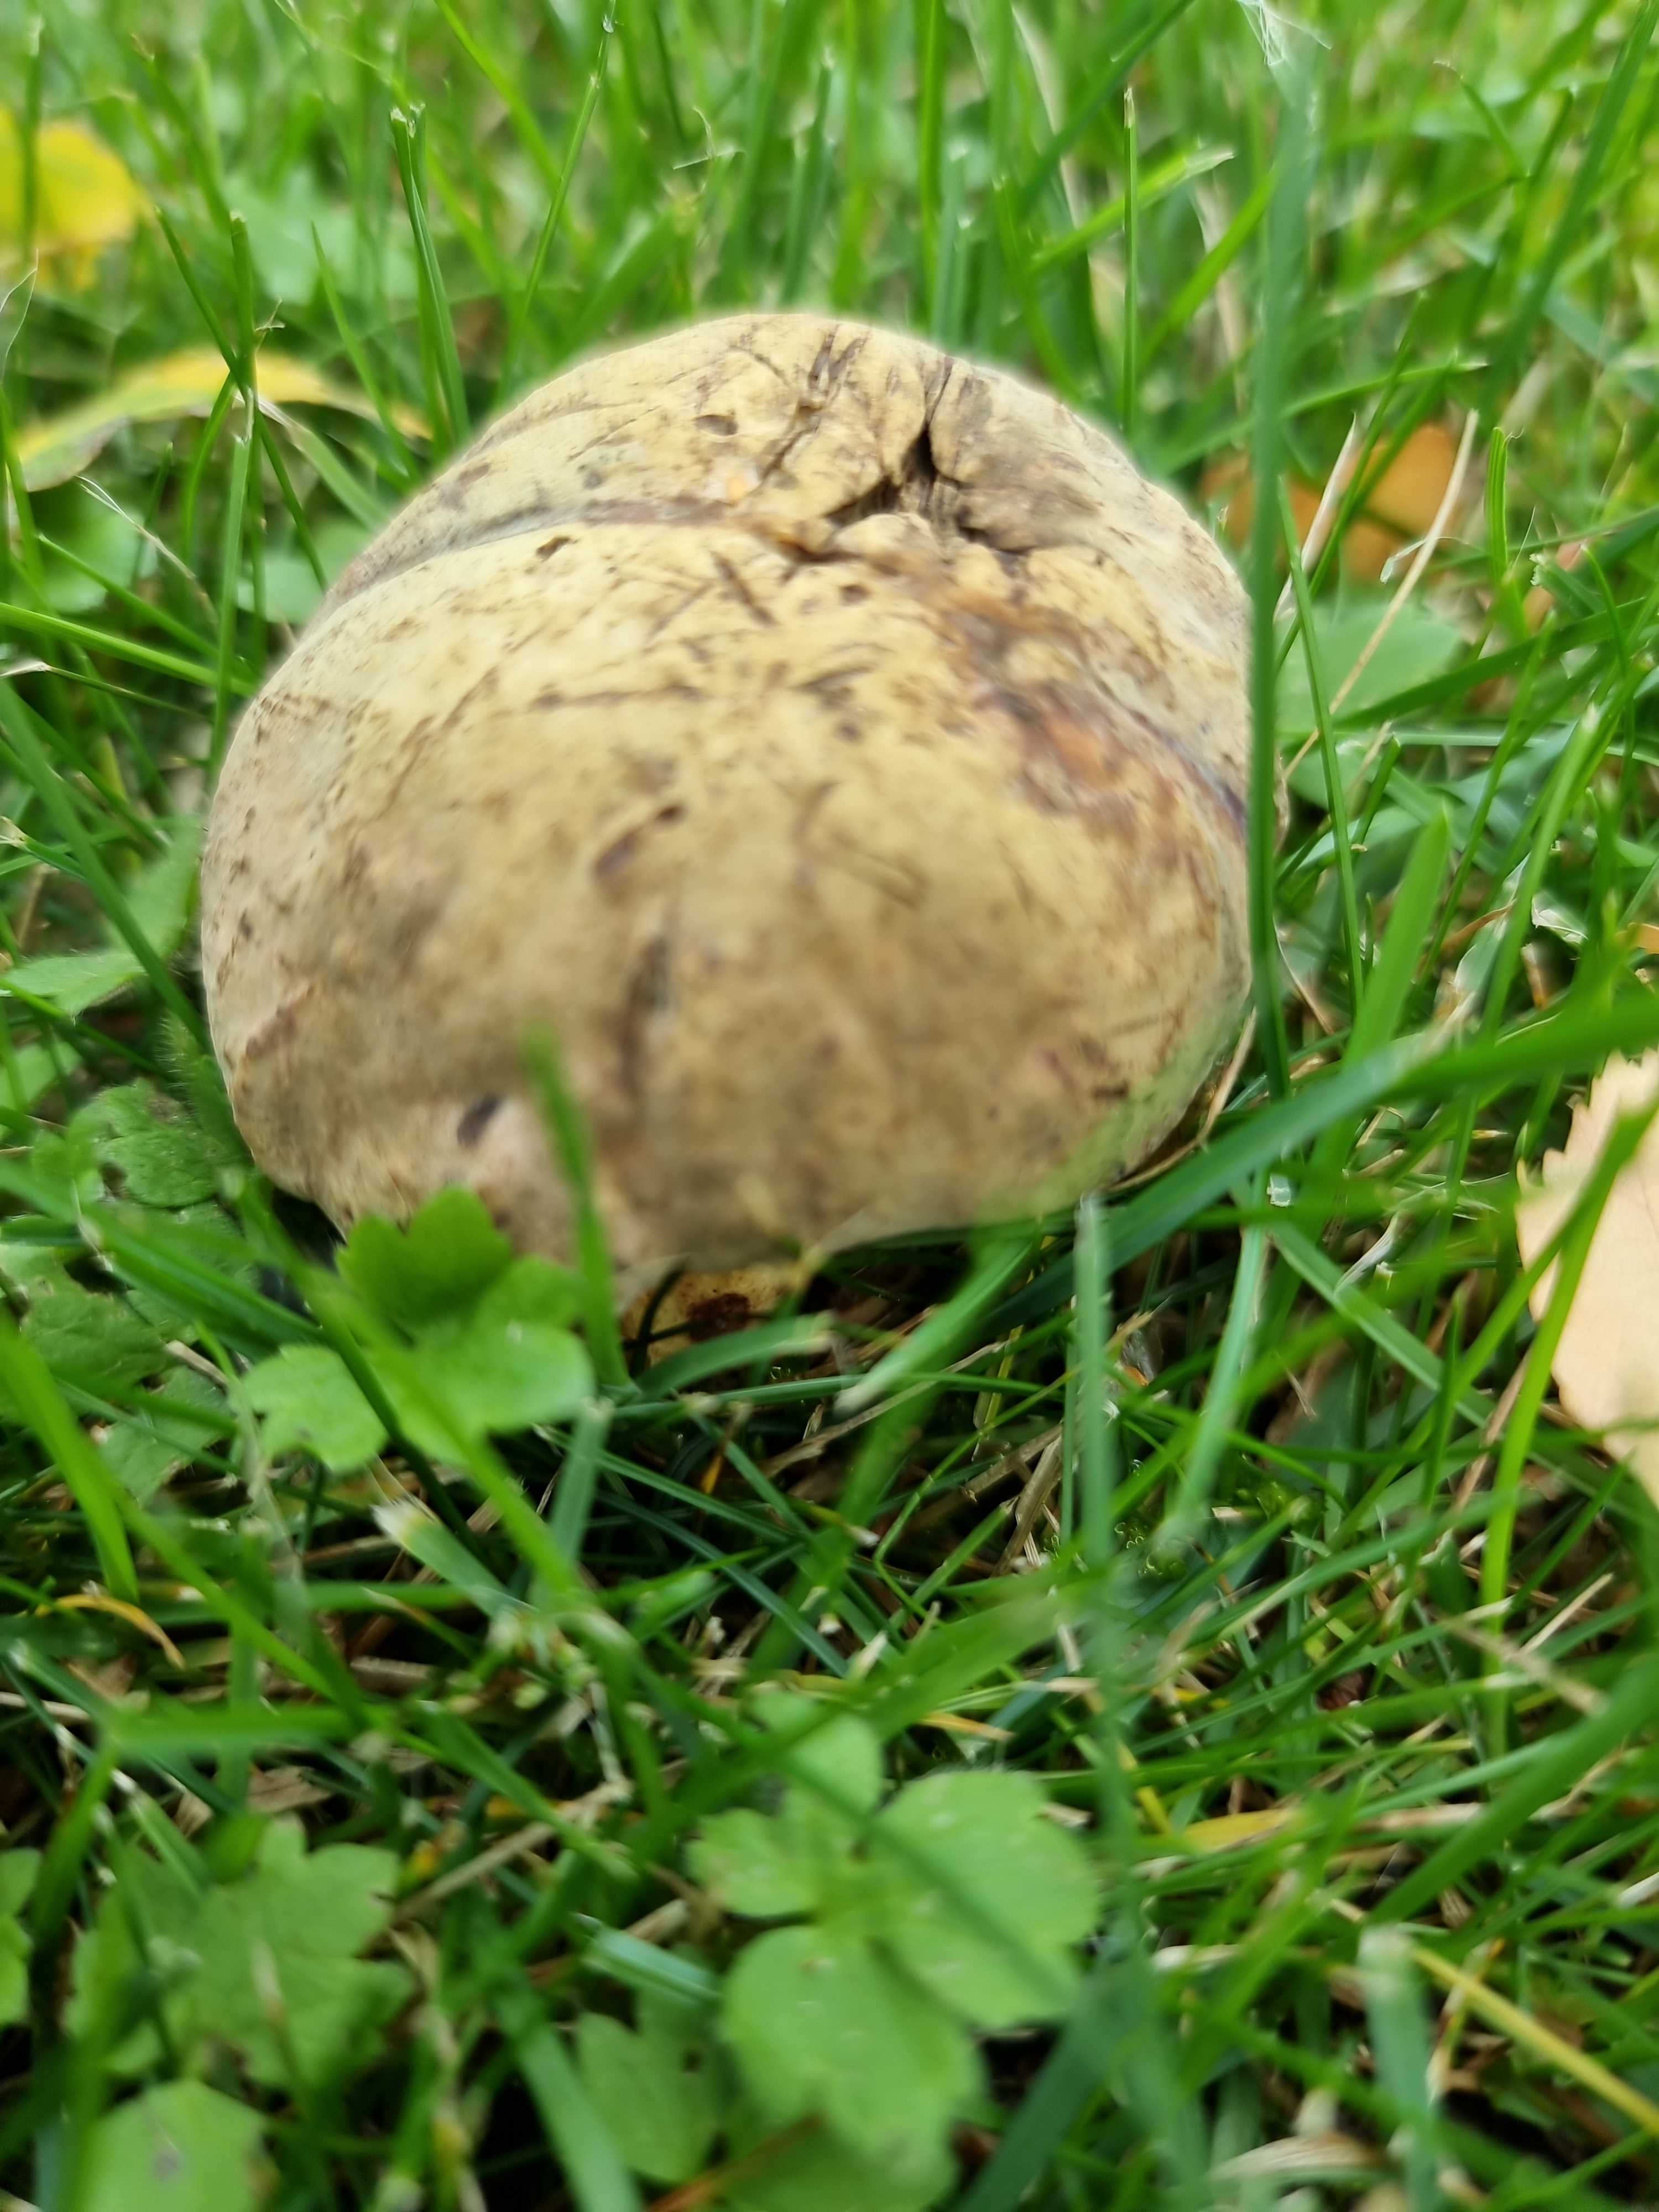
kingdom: Fungi
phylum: Basidiomycota
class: Agaricomycetes
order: Boletales
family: Boletaceae
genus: Suillellus
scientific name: Suillellus luridus
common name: netstokket indigorørhat
